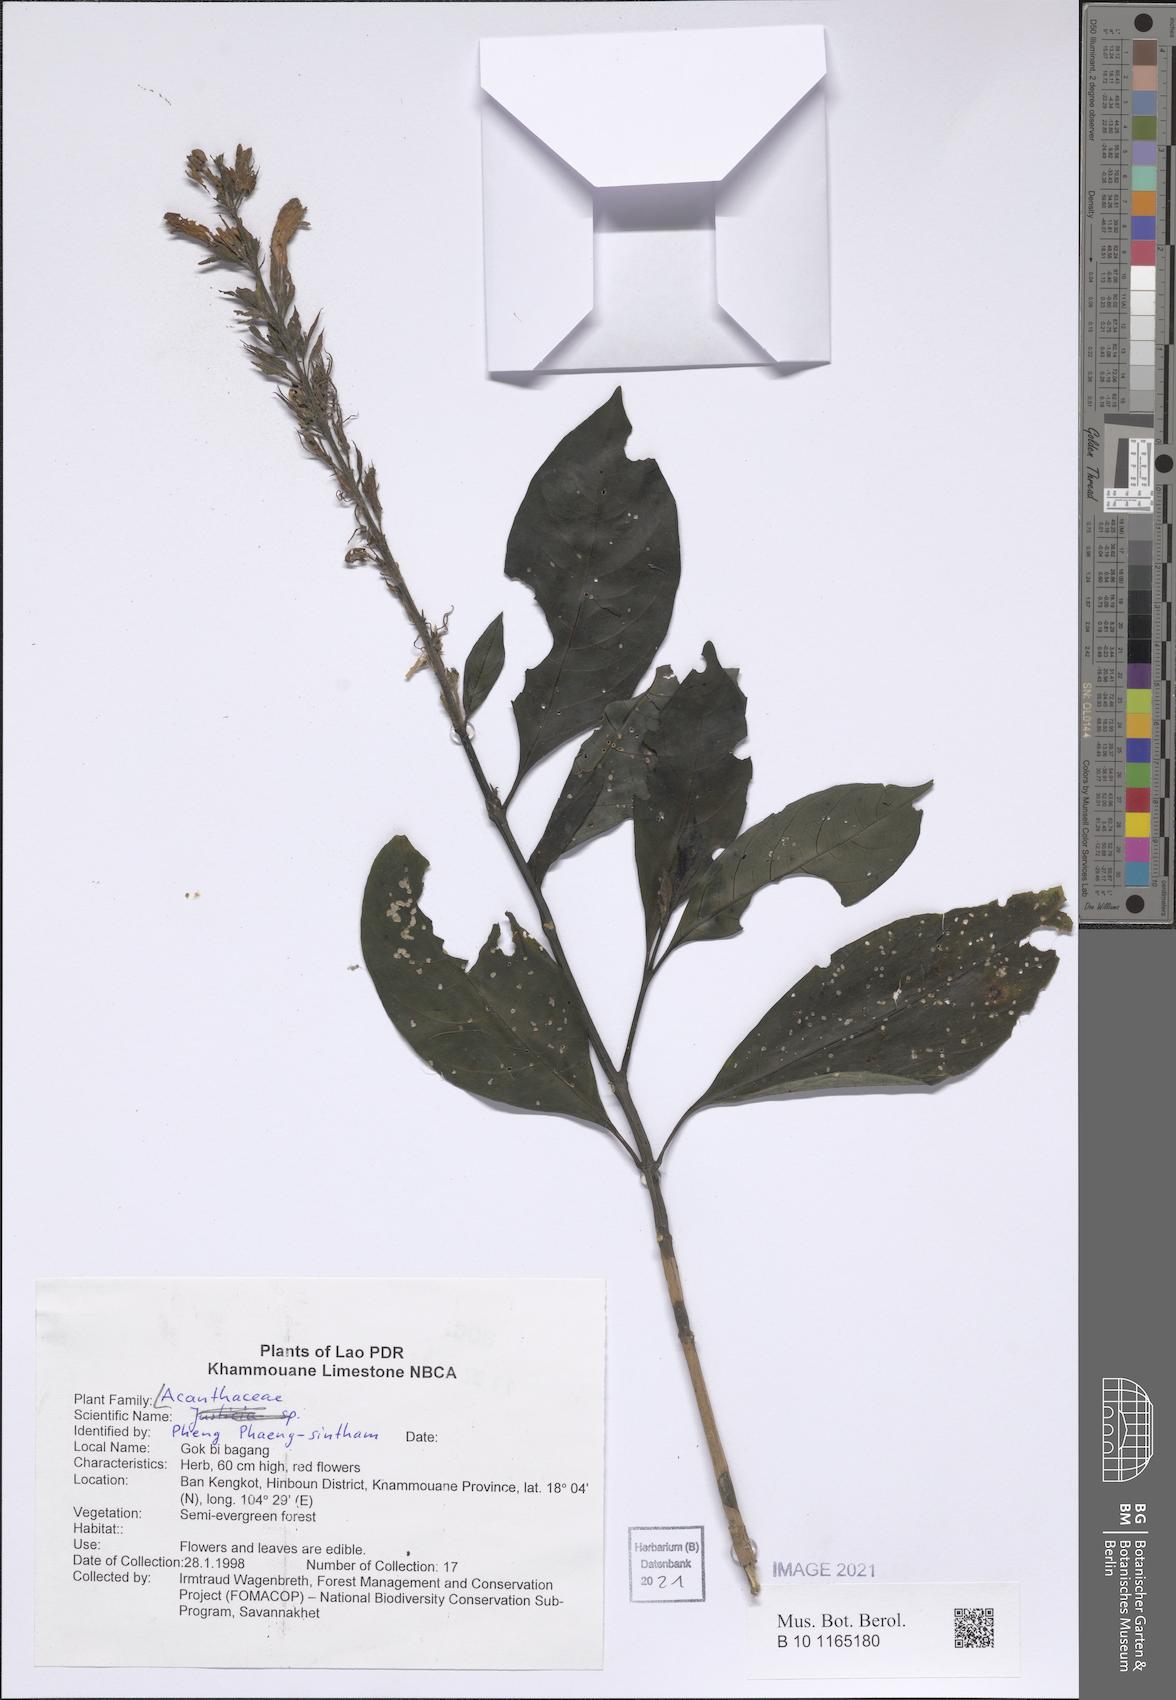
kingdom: Plantae
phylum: Tracheophyta
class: Magnoliopsida
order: Lamiales
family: Acanthaceae
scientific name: Acanthaceae
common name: Acanthaceae
